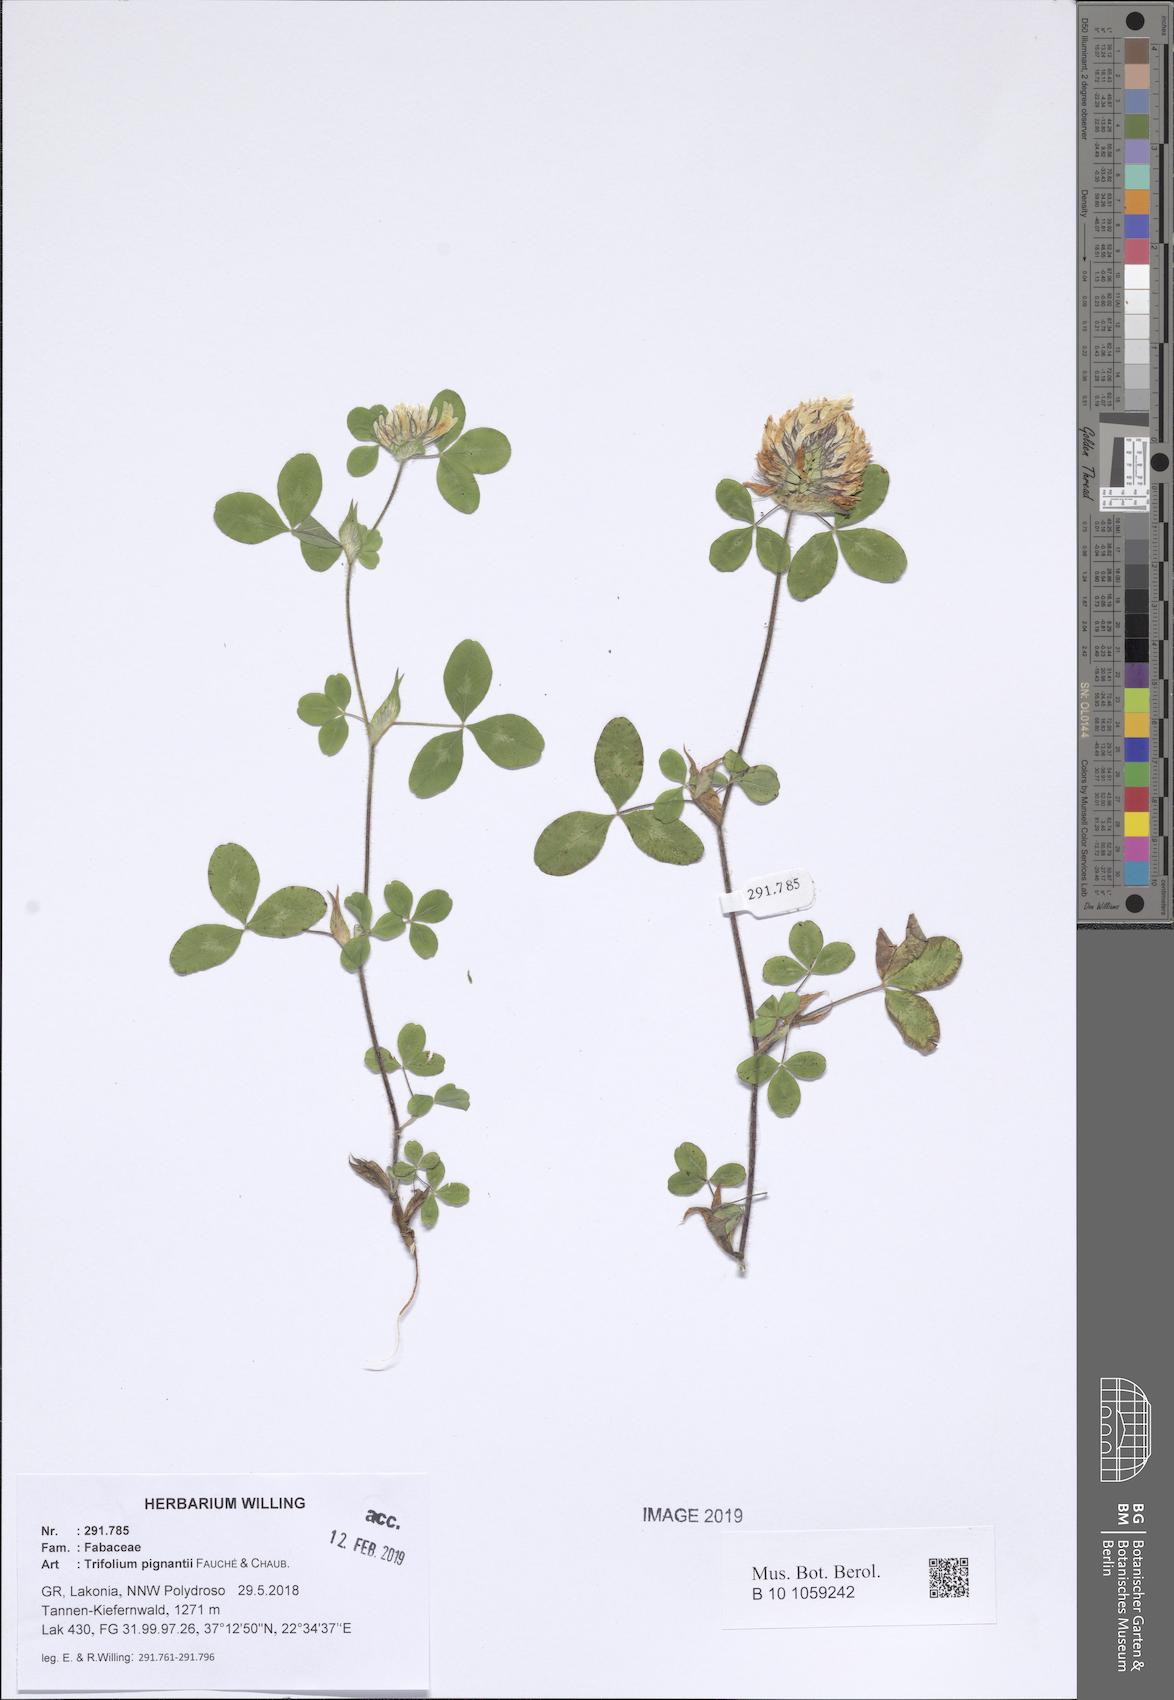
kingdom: Plantae
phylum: Tracheophyta
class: Magnoliopsida
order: Fabales
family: Fabaceae
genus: Trifolium
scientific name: Trifolium pignantii
